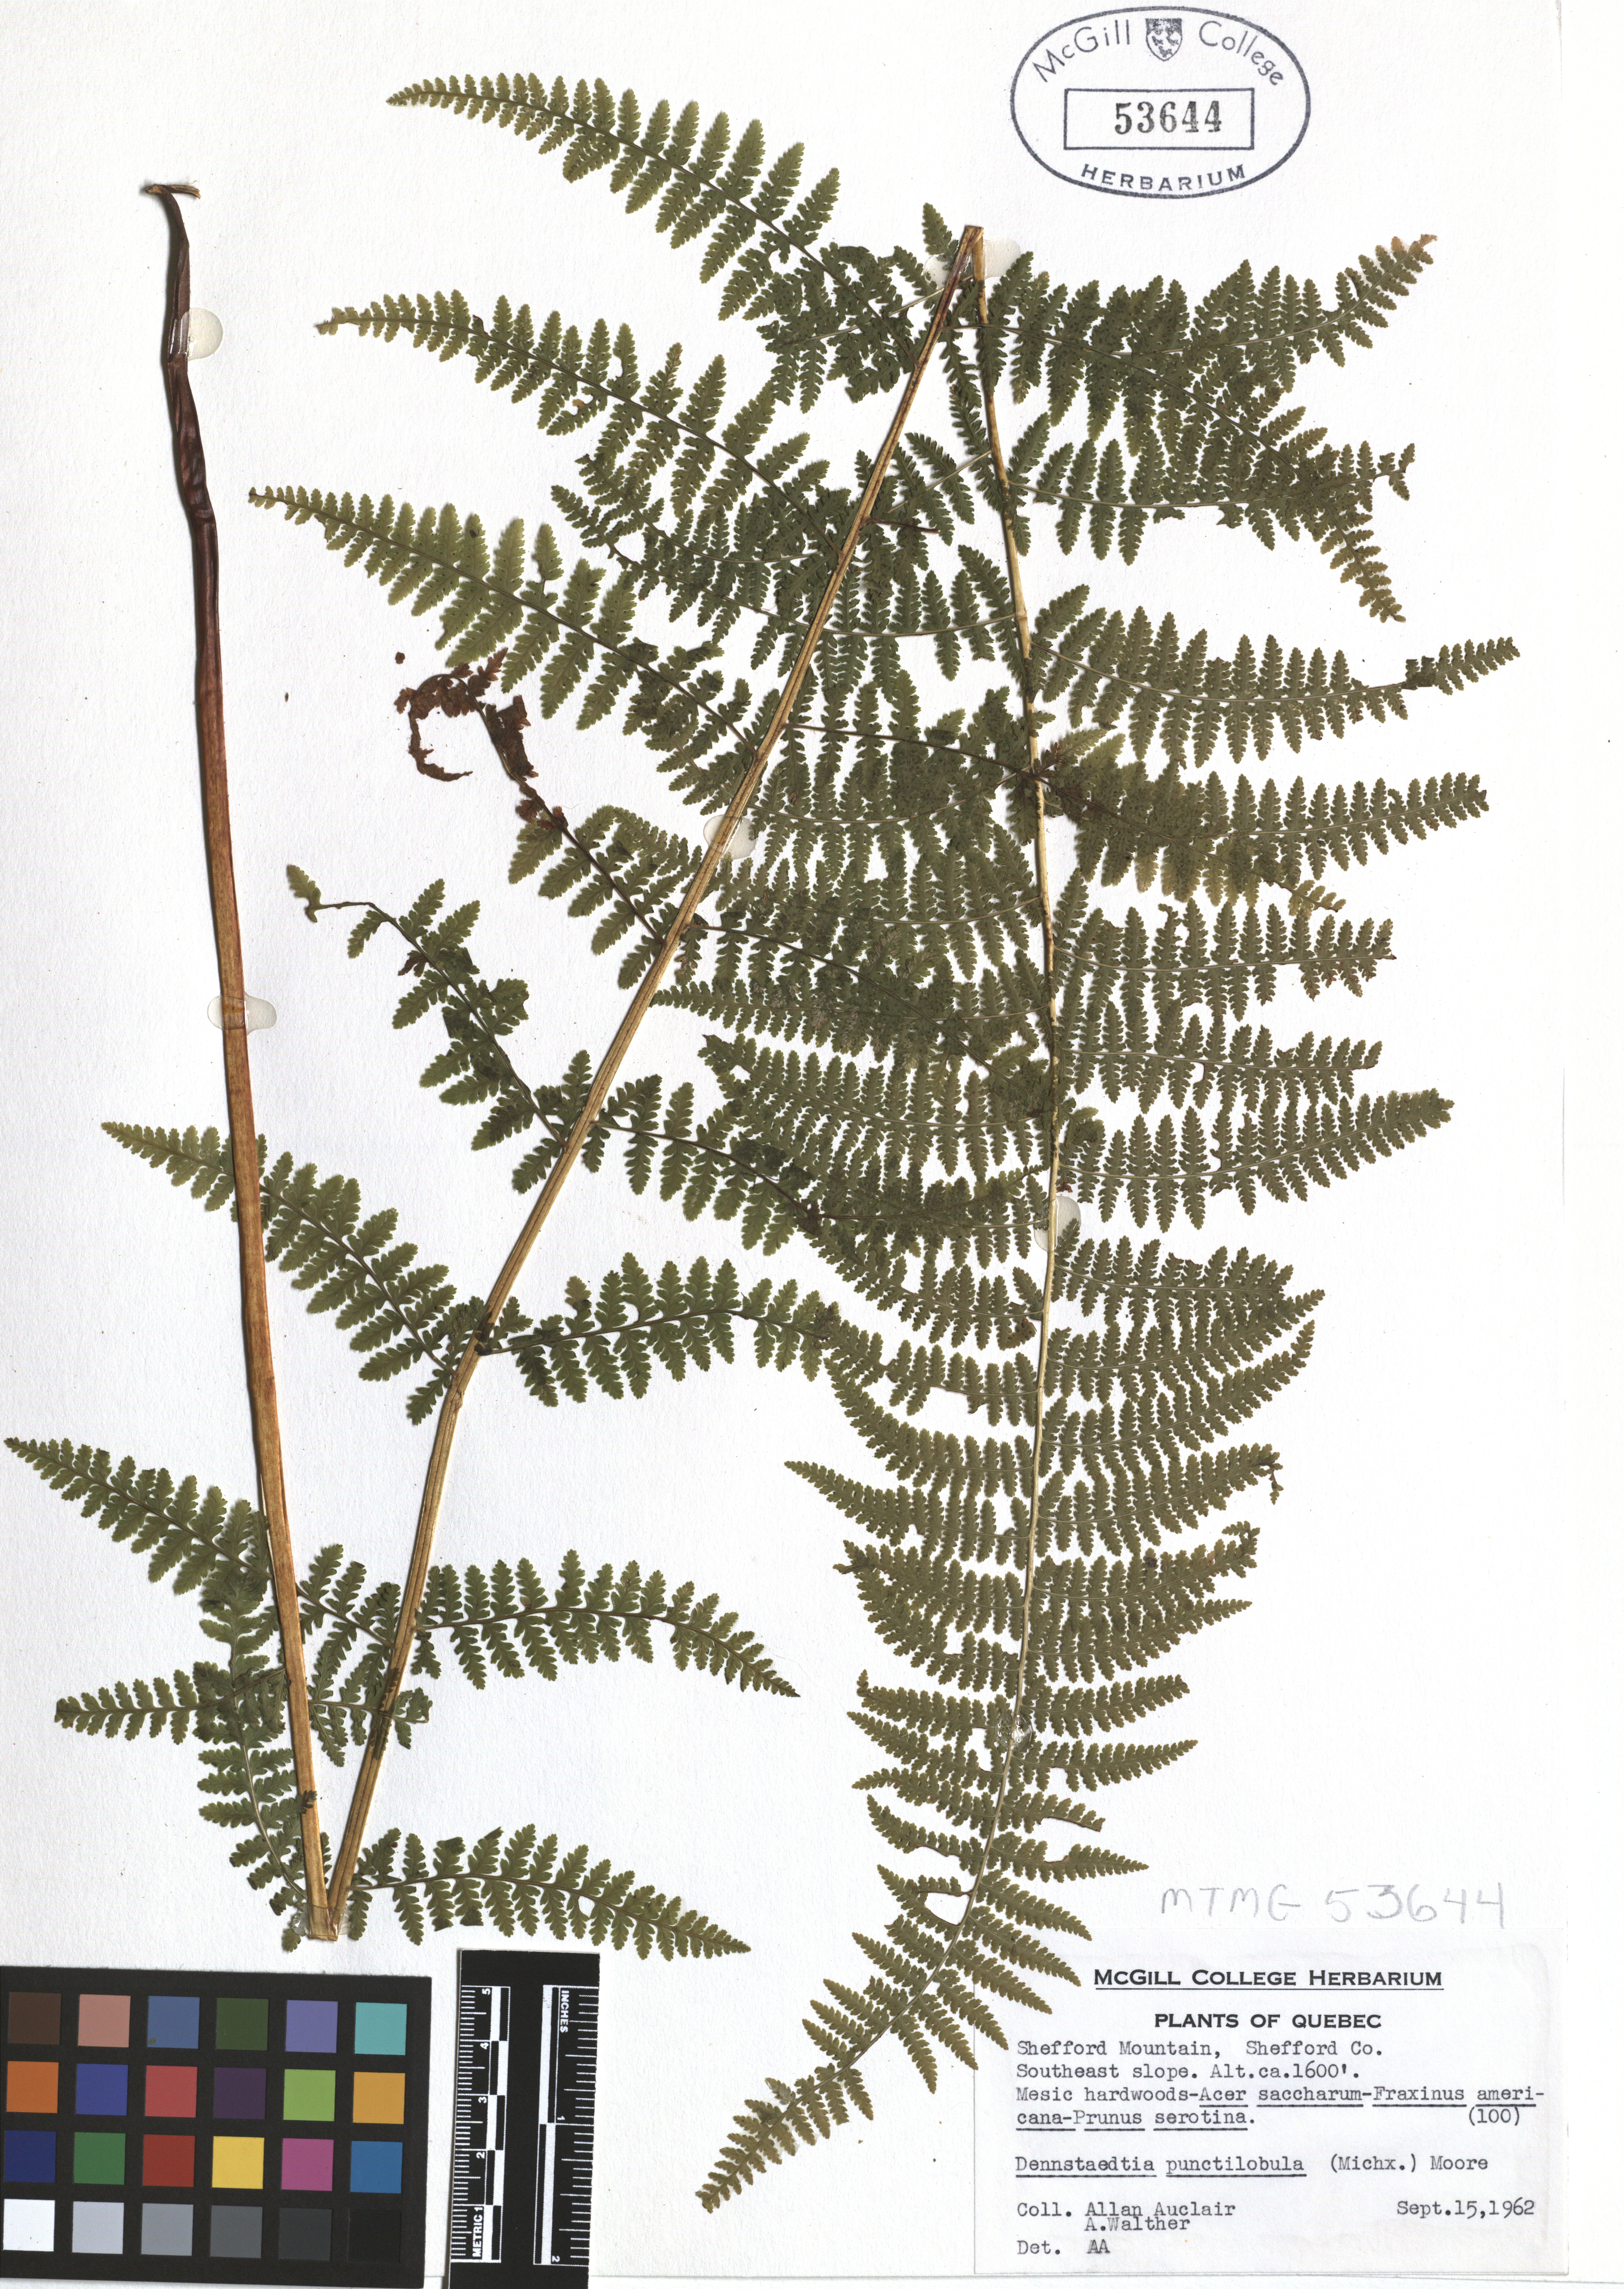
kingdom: Plantae
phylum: Tracheophyta
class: Polypodiopsida
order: Polypodiales
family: Dennstaedtiaceae
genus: Sitobolium
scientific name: Sitobolium punctilobum
